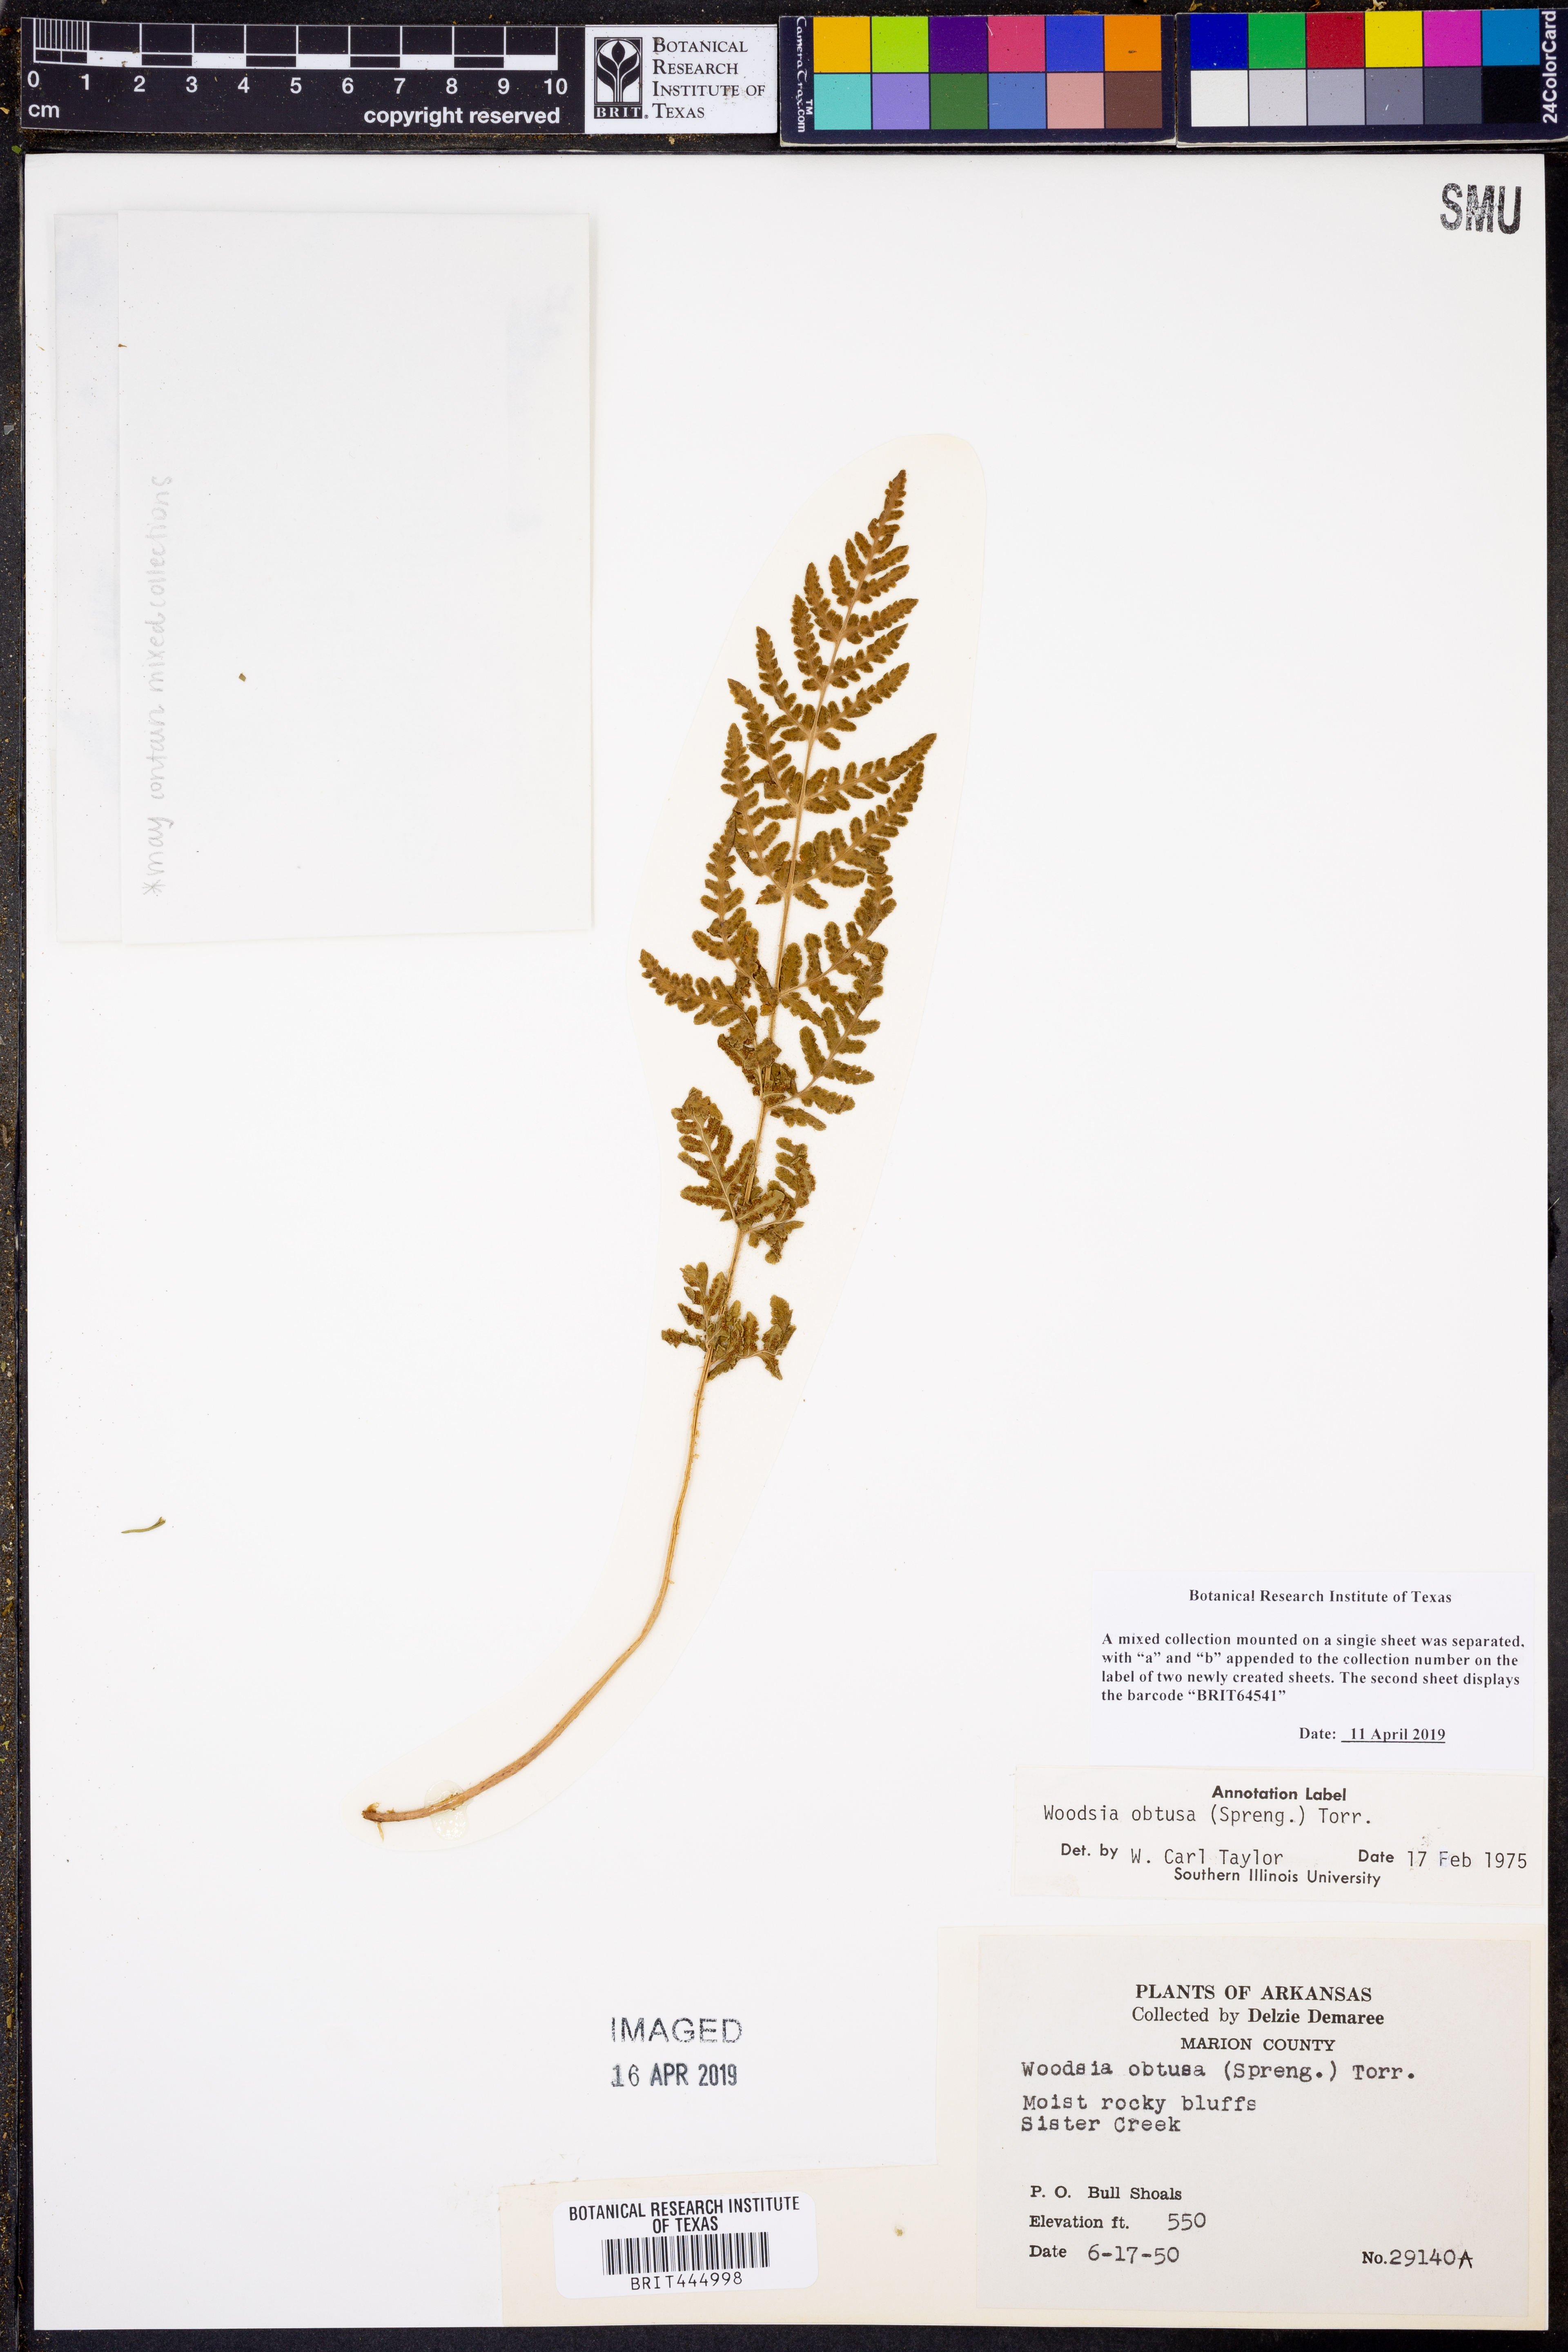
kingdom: Plantae
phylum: Tracheophyta
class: Polypodiopsida
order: Polypodiales
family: Woodsiaceae
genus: Physematium
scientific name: Physematium obtusum
